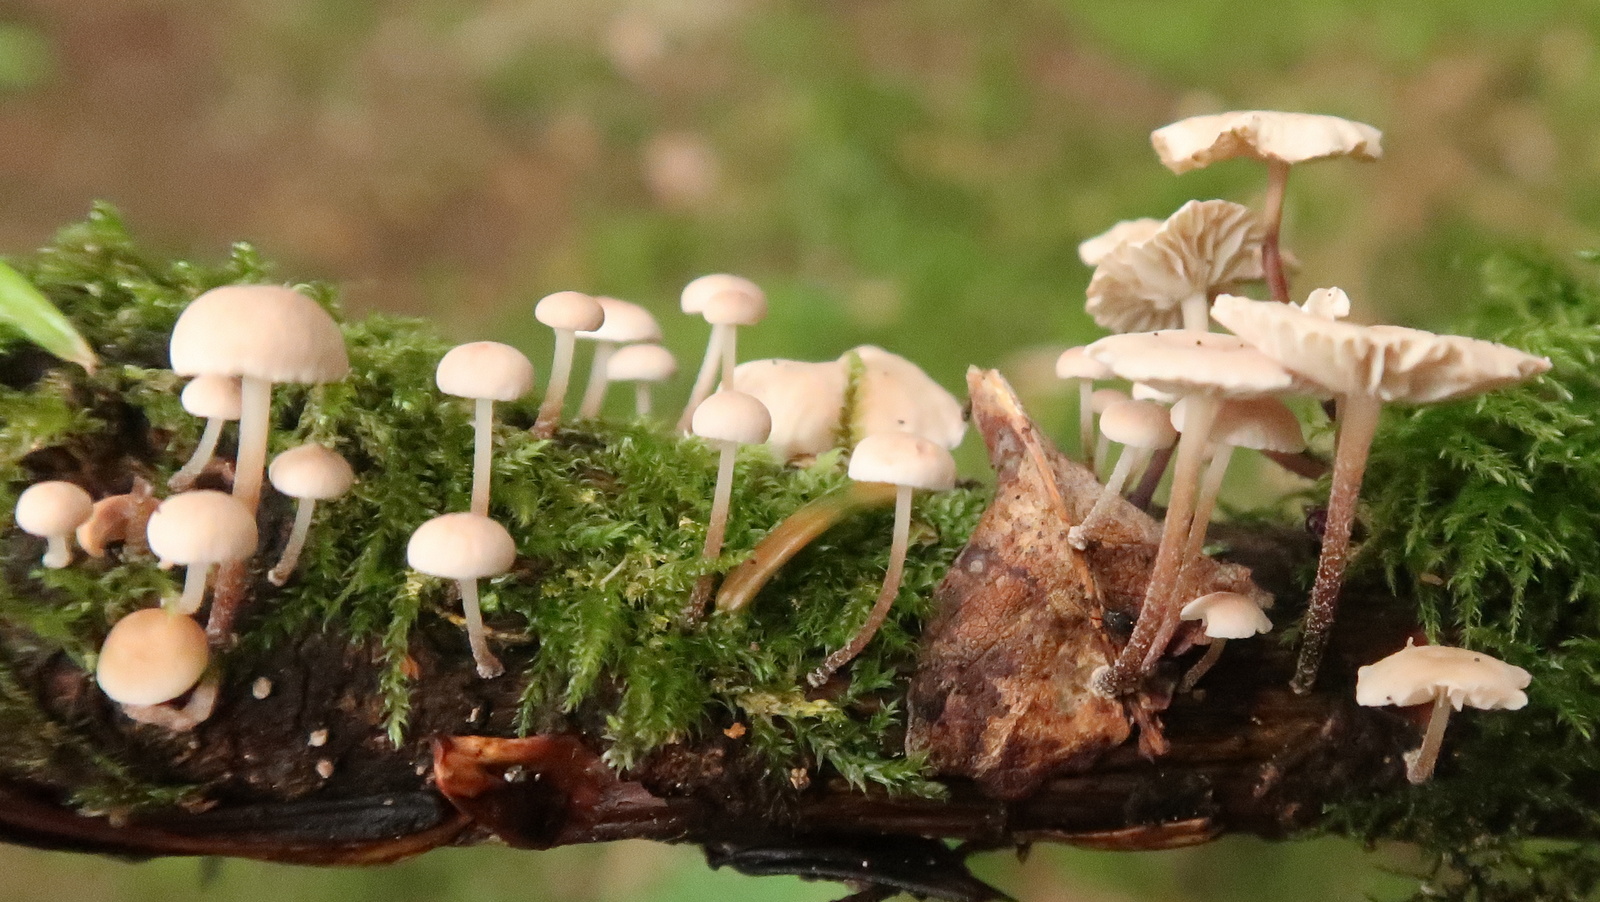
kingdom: Fungi
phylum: Basidiomycota
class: Agaricomycetes
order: Agaricales
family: Omphalotaceae
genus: Collybiopsis
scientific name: Collybiopsis ramealis
